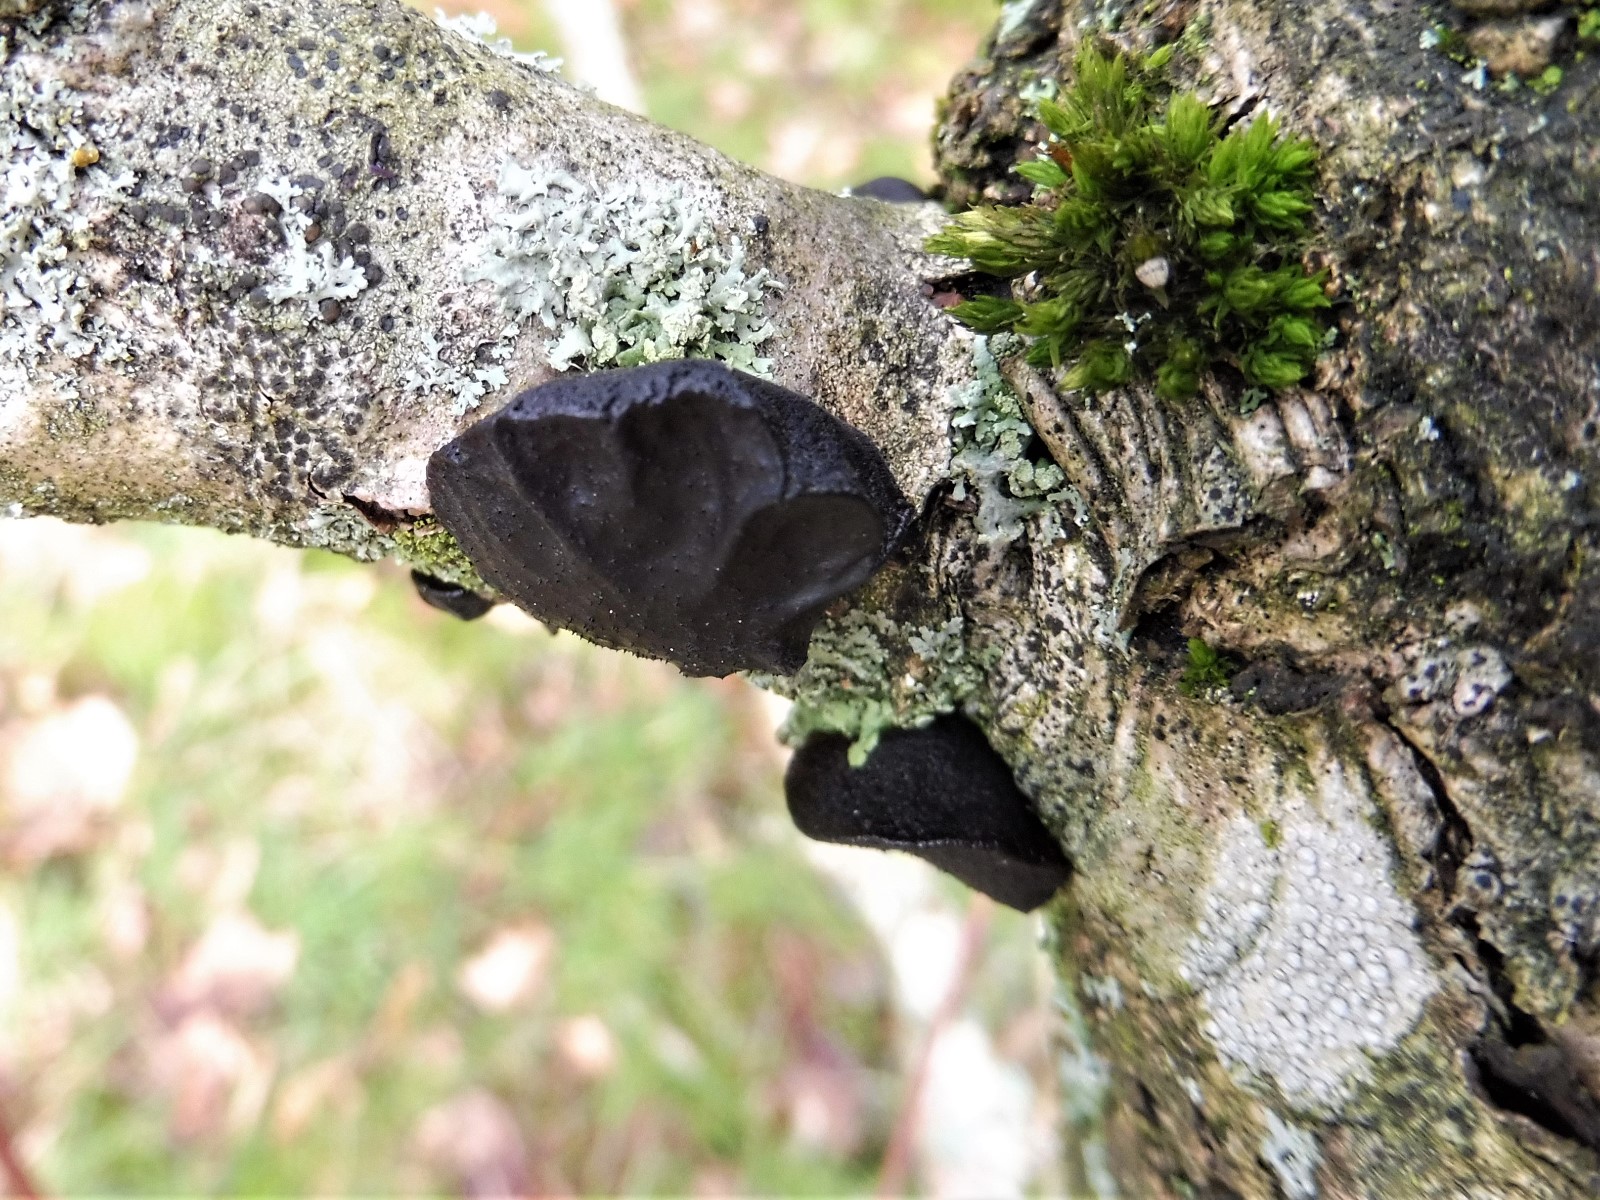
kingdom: Fungi
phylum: Basidiomycota
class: Agaricomycetes
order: Auriculariales
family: Auriculariaceae
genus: Exidia
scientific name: Exidia glandulosa
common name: ege-bævretop
